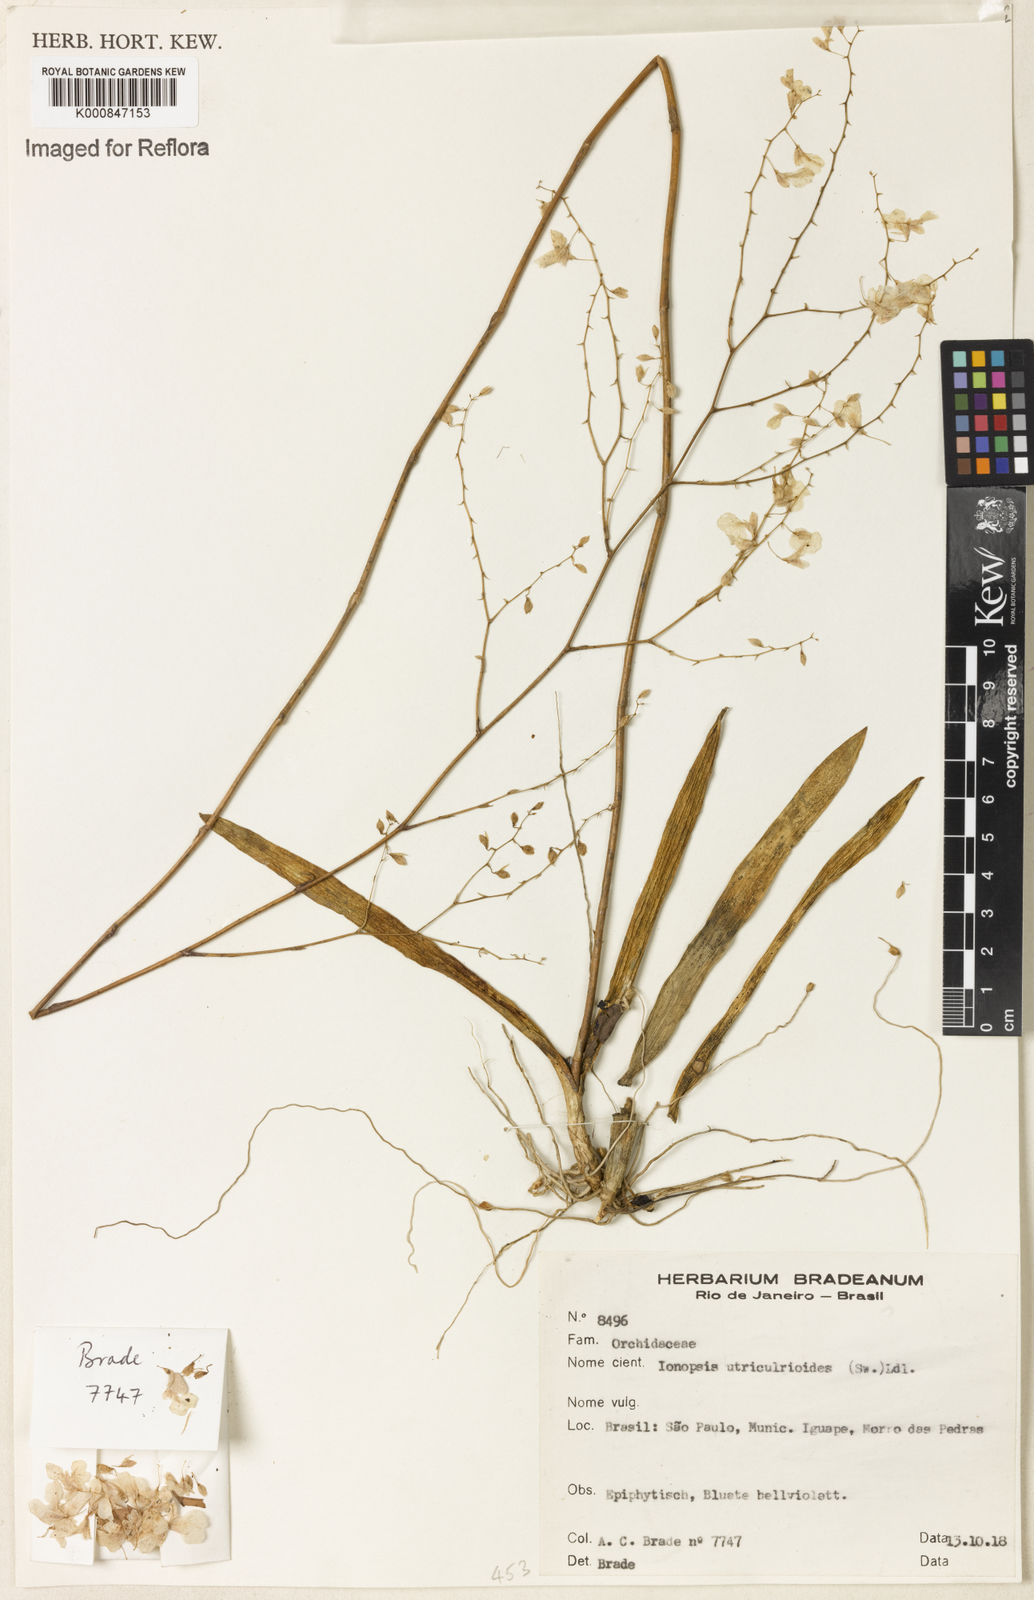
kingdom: Plantae
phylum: Tracheophyta
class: Liliopsida
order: Asparagales
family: Orchidaceae
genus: Ionopsis
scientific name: Ionopsis utricularioides
